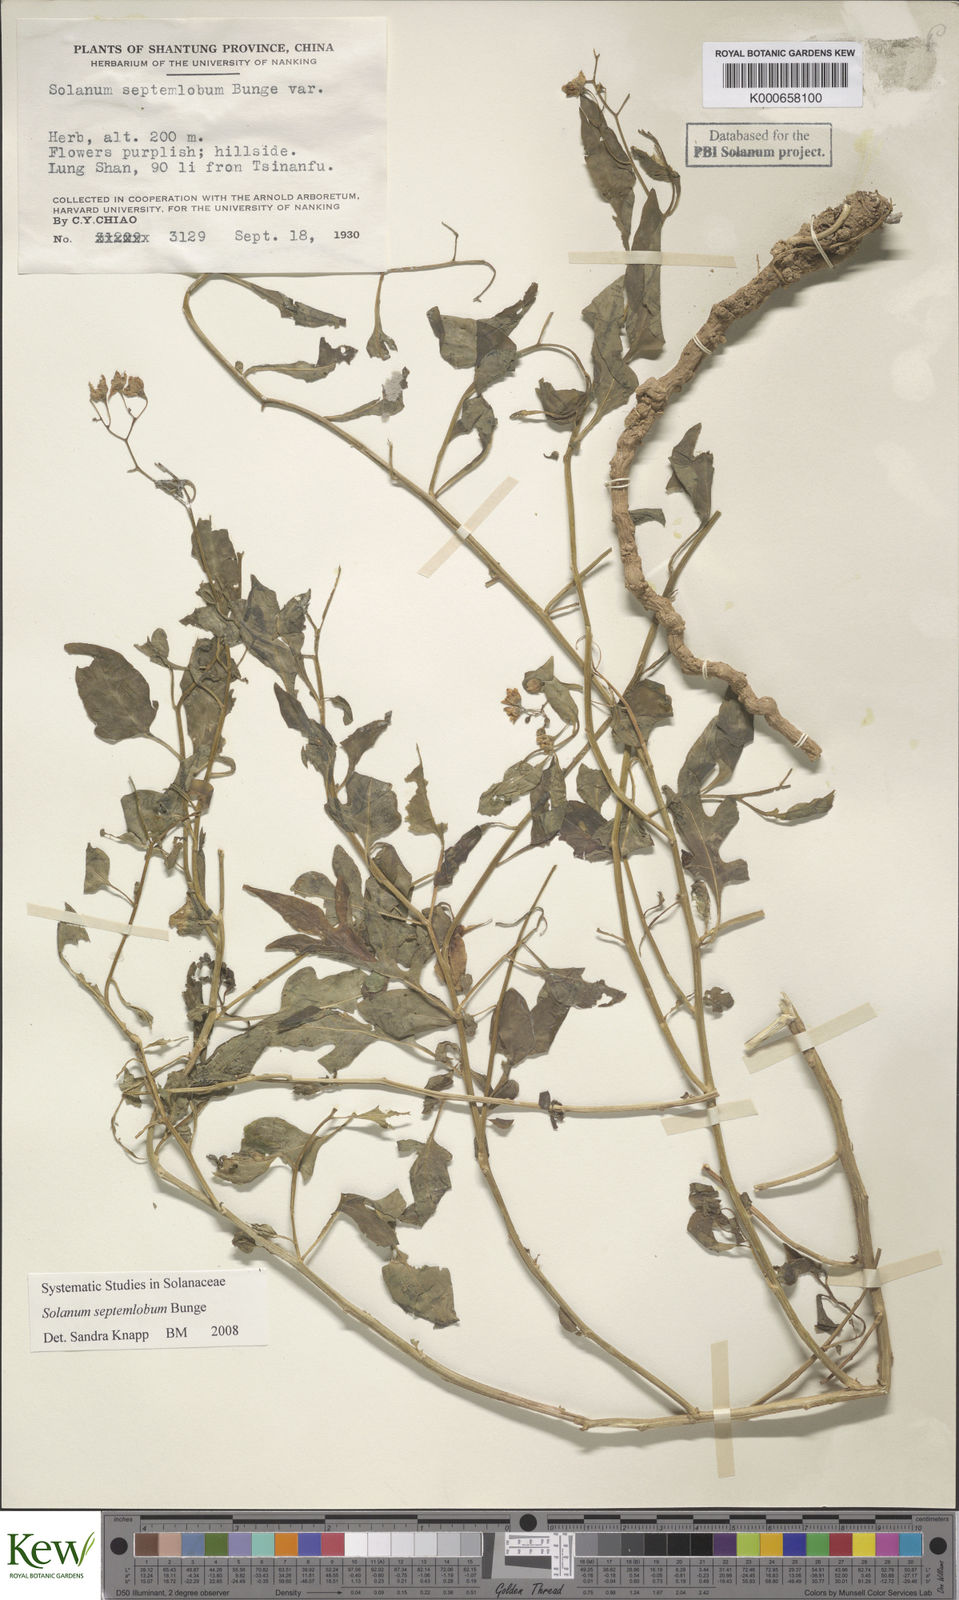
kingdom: Plantae
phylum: Tracheophyta
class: Magnoliopsida
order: Solanales
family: Solanaceae
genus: Solanum
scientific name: Solanum septemlobum
